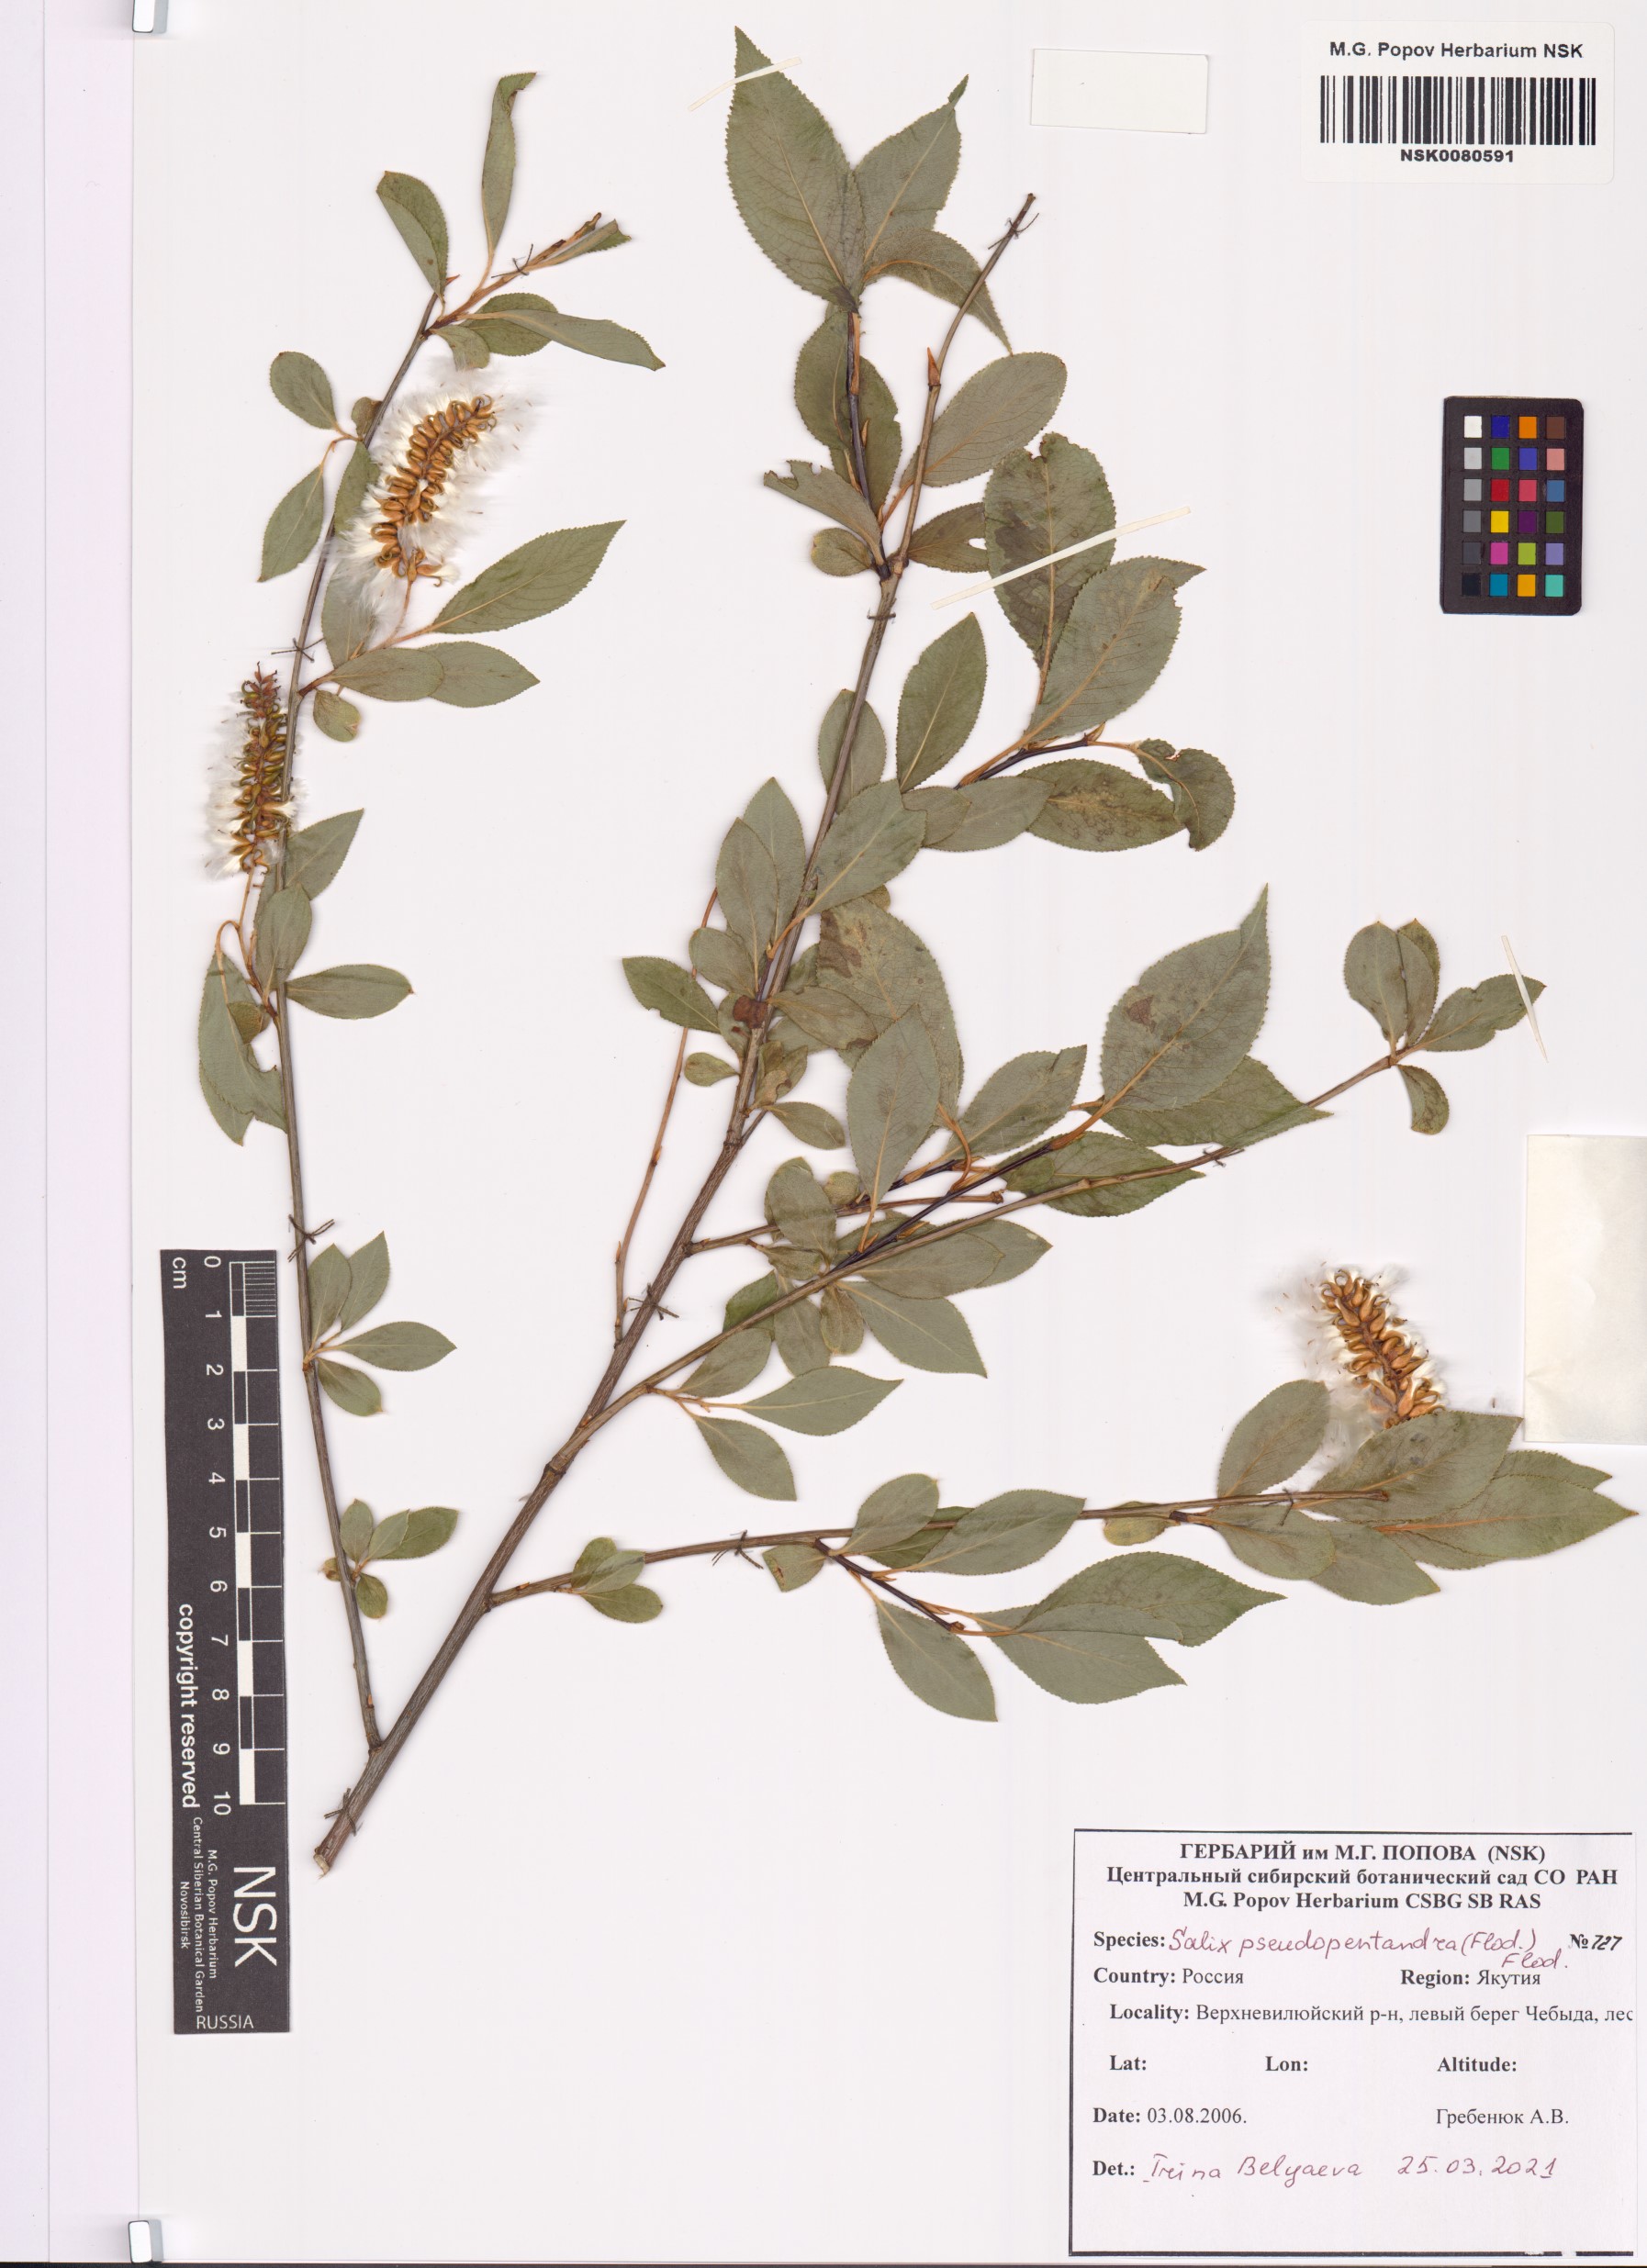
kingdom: Plantae
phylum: Tracheophyta
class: Magnoliopsida
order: Malpighiales
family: Salicaceae
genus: Salix
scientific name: Salix pseudopentandra
